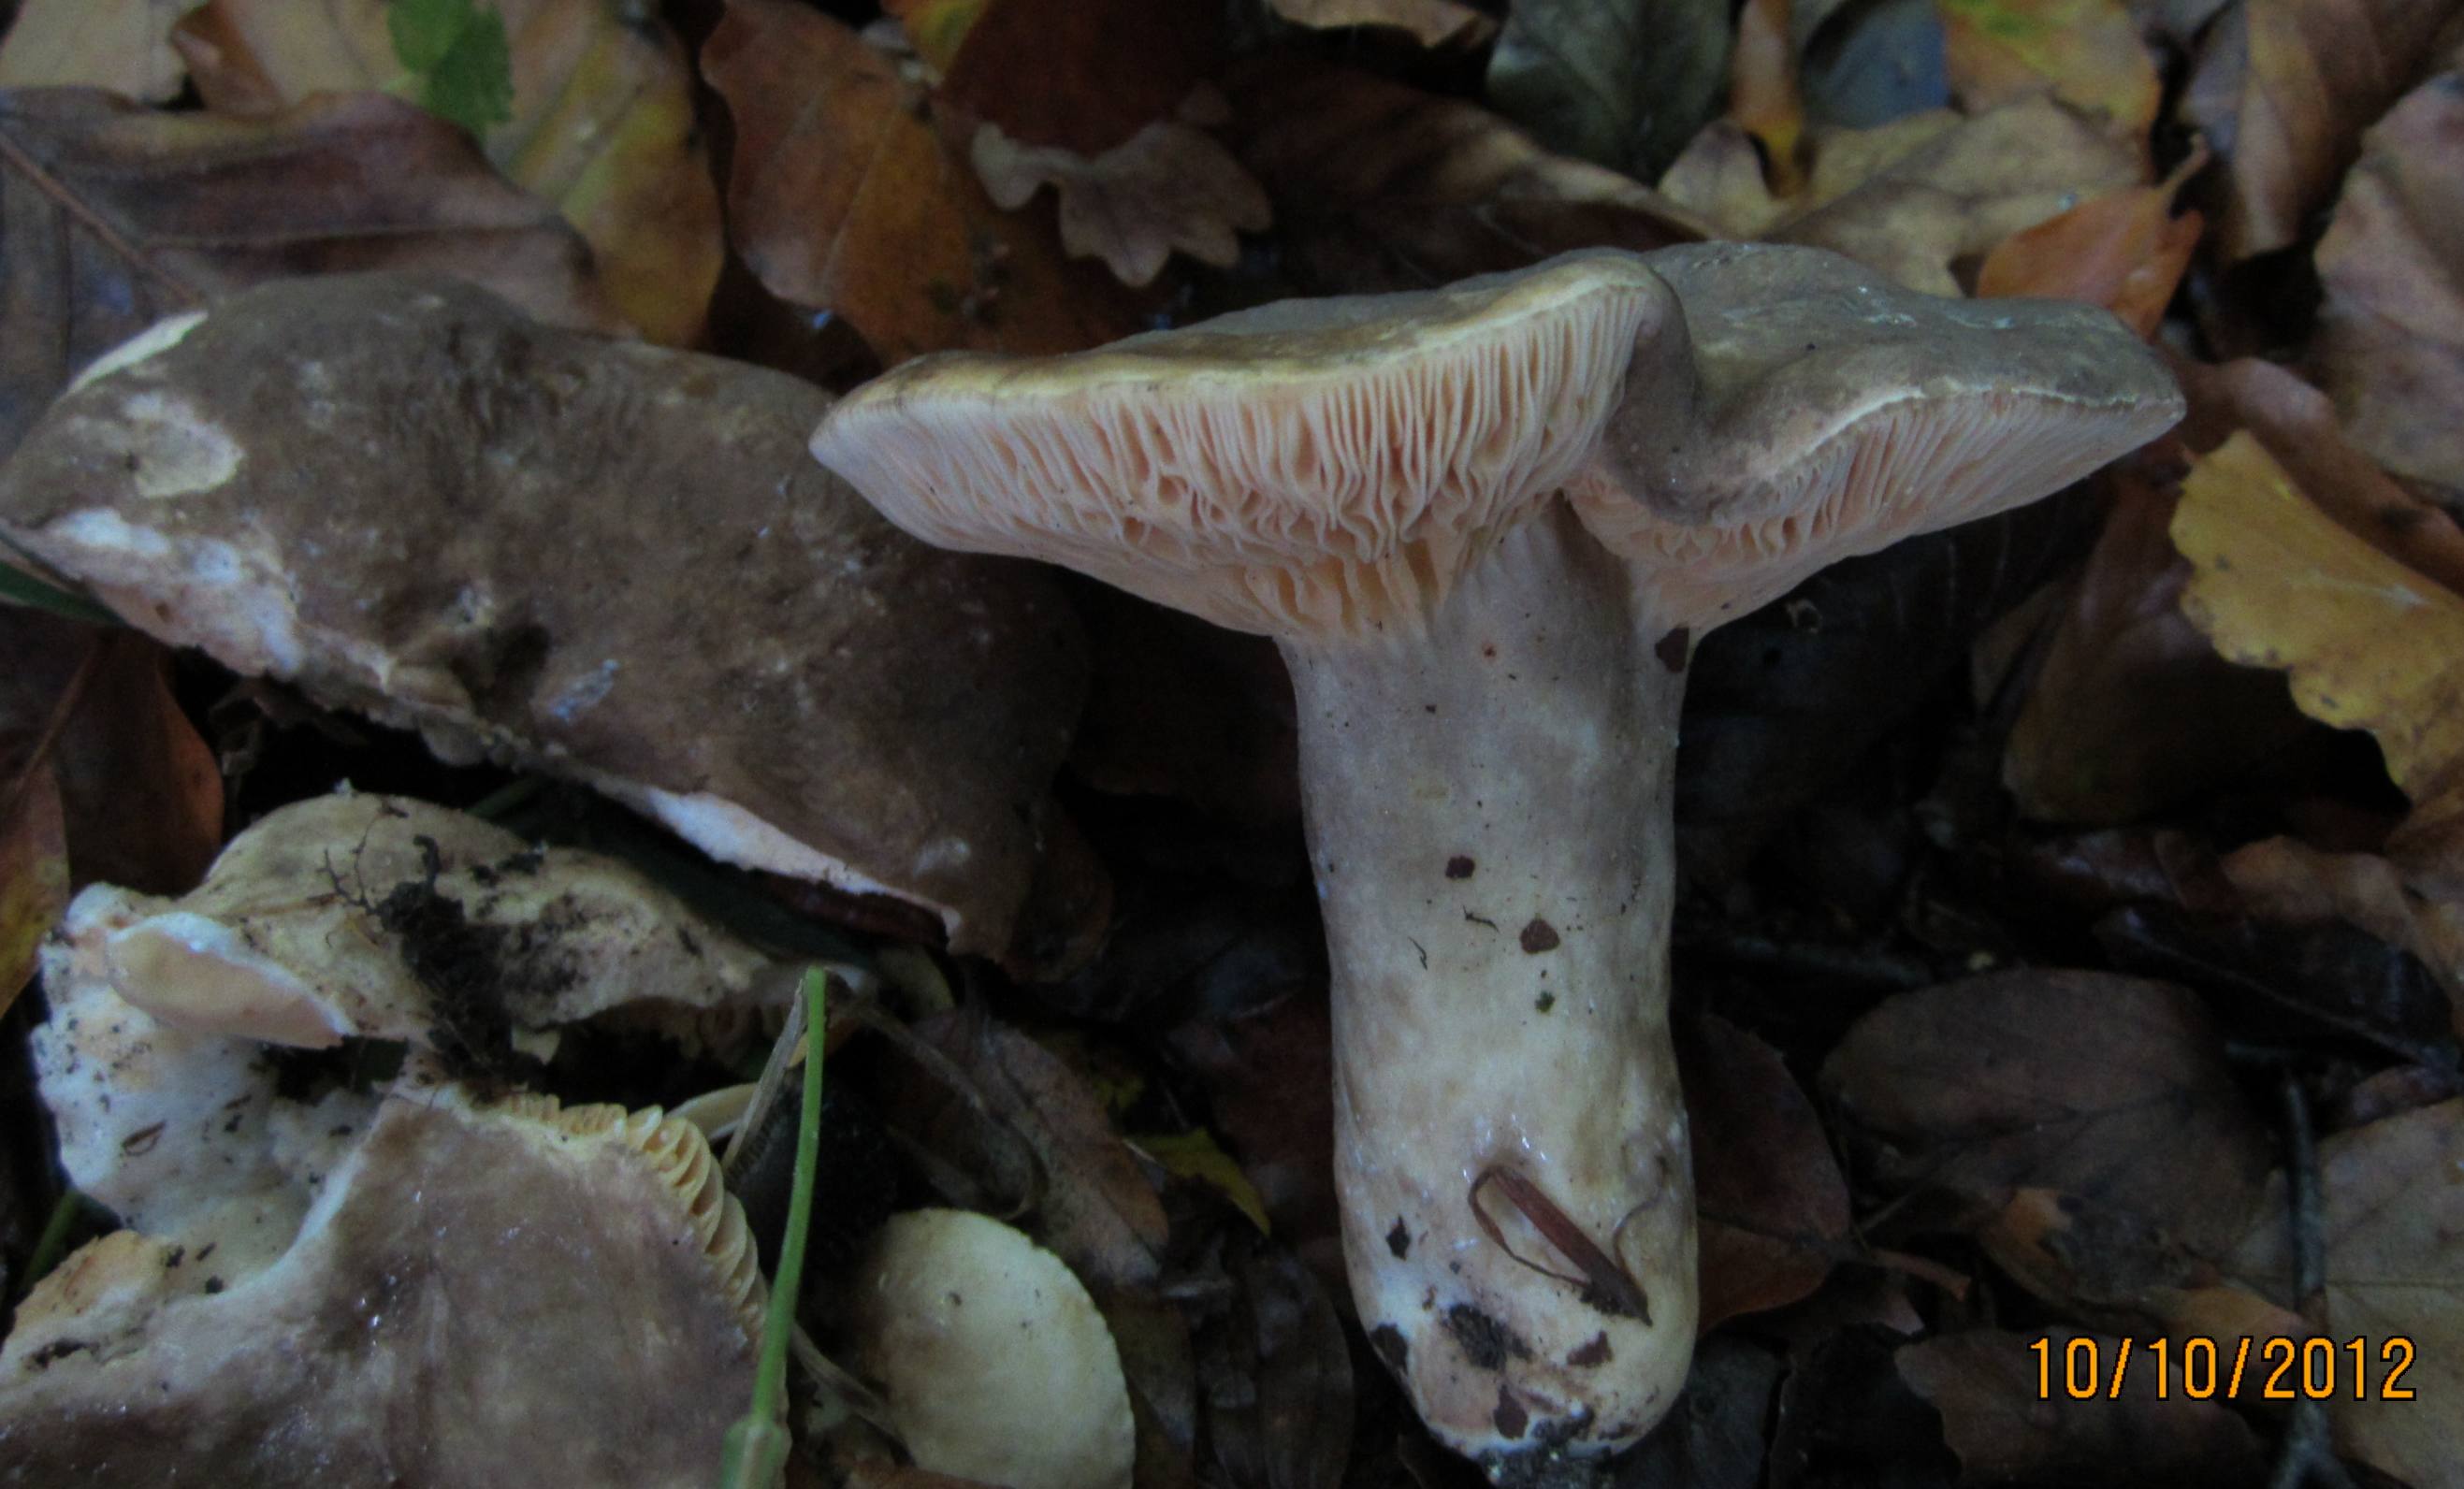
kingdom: Fungi
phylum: Basidiomycota
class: Agaricomycetes
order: Russulales
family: Russulaceae
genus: Lactarius
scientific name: Lactarius pterosporus
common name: vingesporet mælkehat
